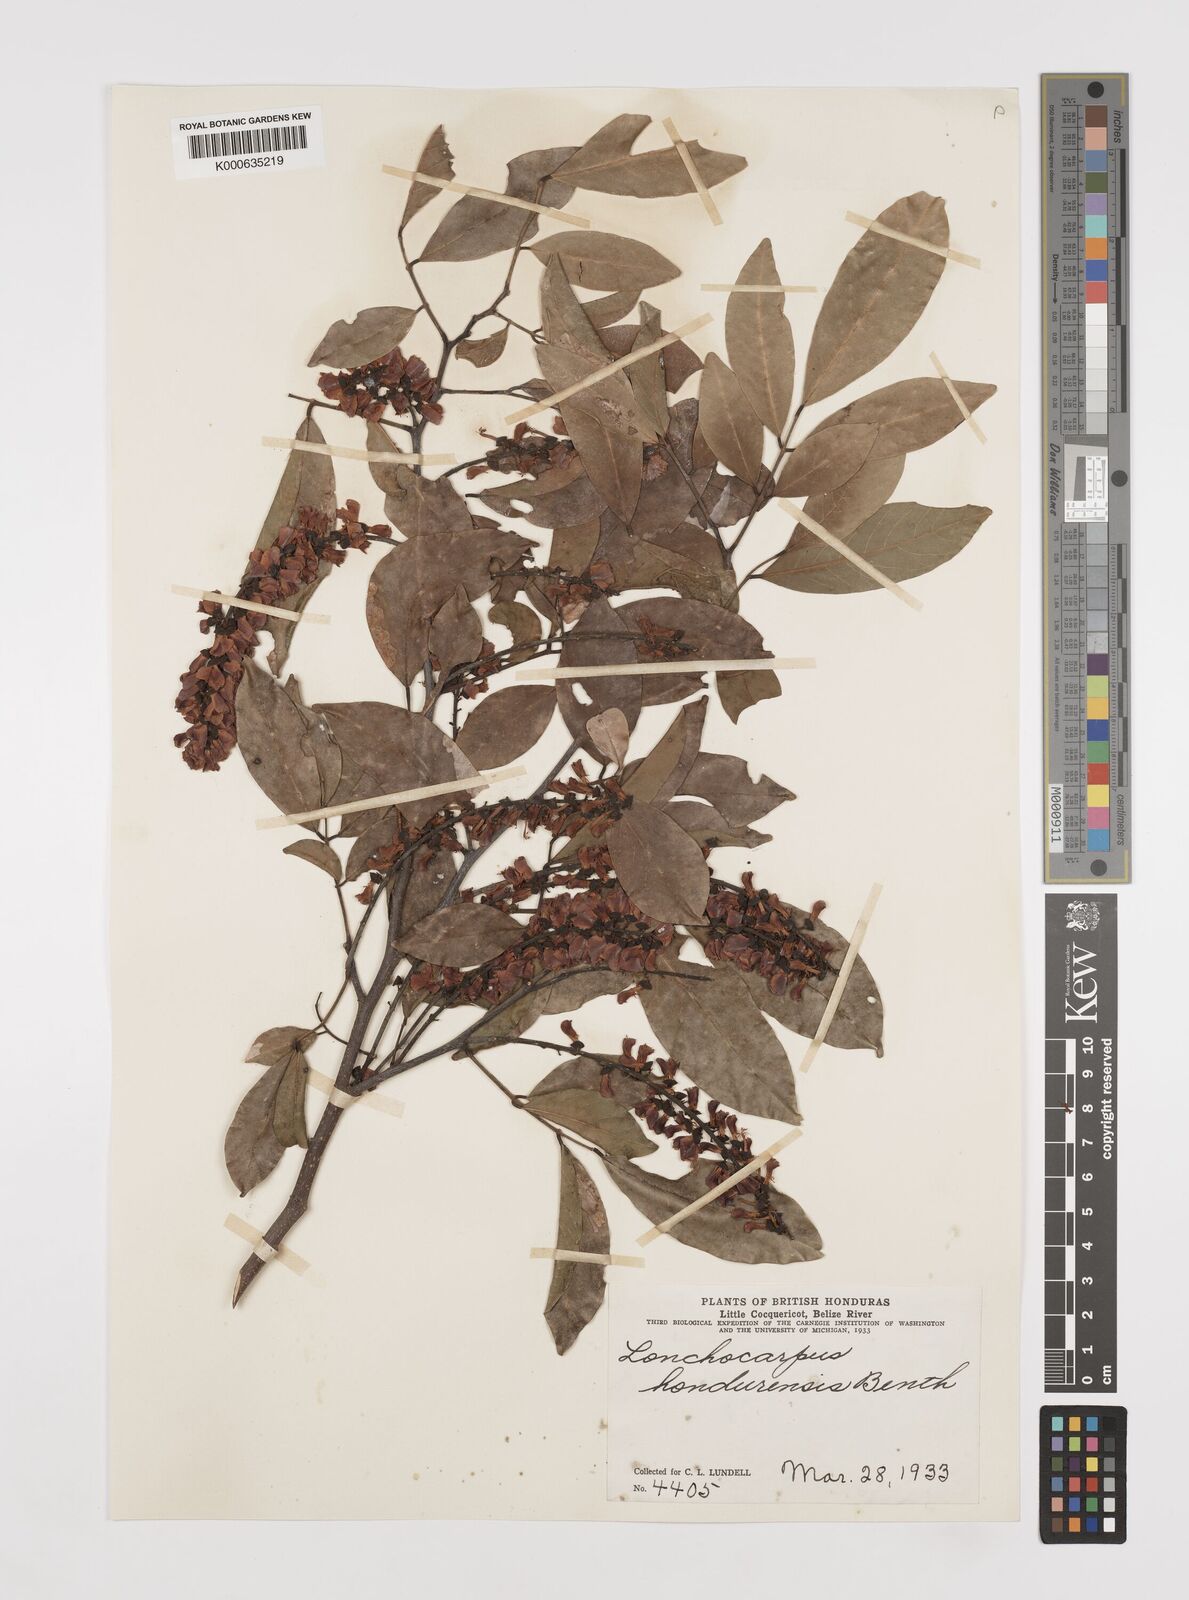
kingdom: Plantae
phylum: Tracheophyta
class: Magnoliopsida
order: Fabales
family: Fabaceae
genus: Lonchocarpus
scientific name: Lonchocarpus hondurensis
